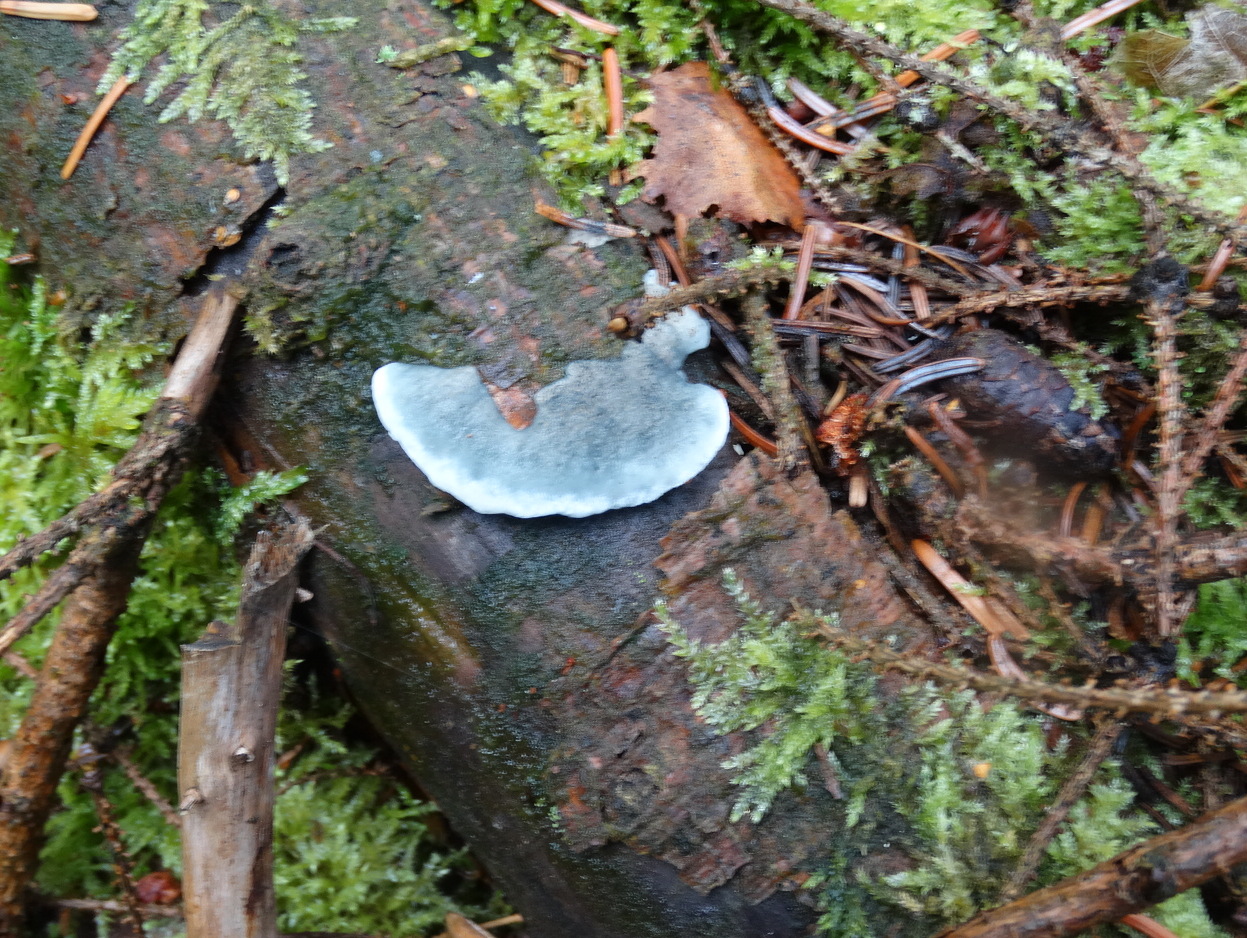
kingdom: Fungi
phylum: Basidiomycota
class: Agaricomycetes
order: Polyporales
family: Polyporaceae
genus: Cyanosporus
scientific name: Cyanosporus caesius
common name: blålig kødporesvamp
